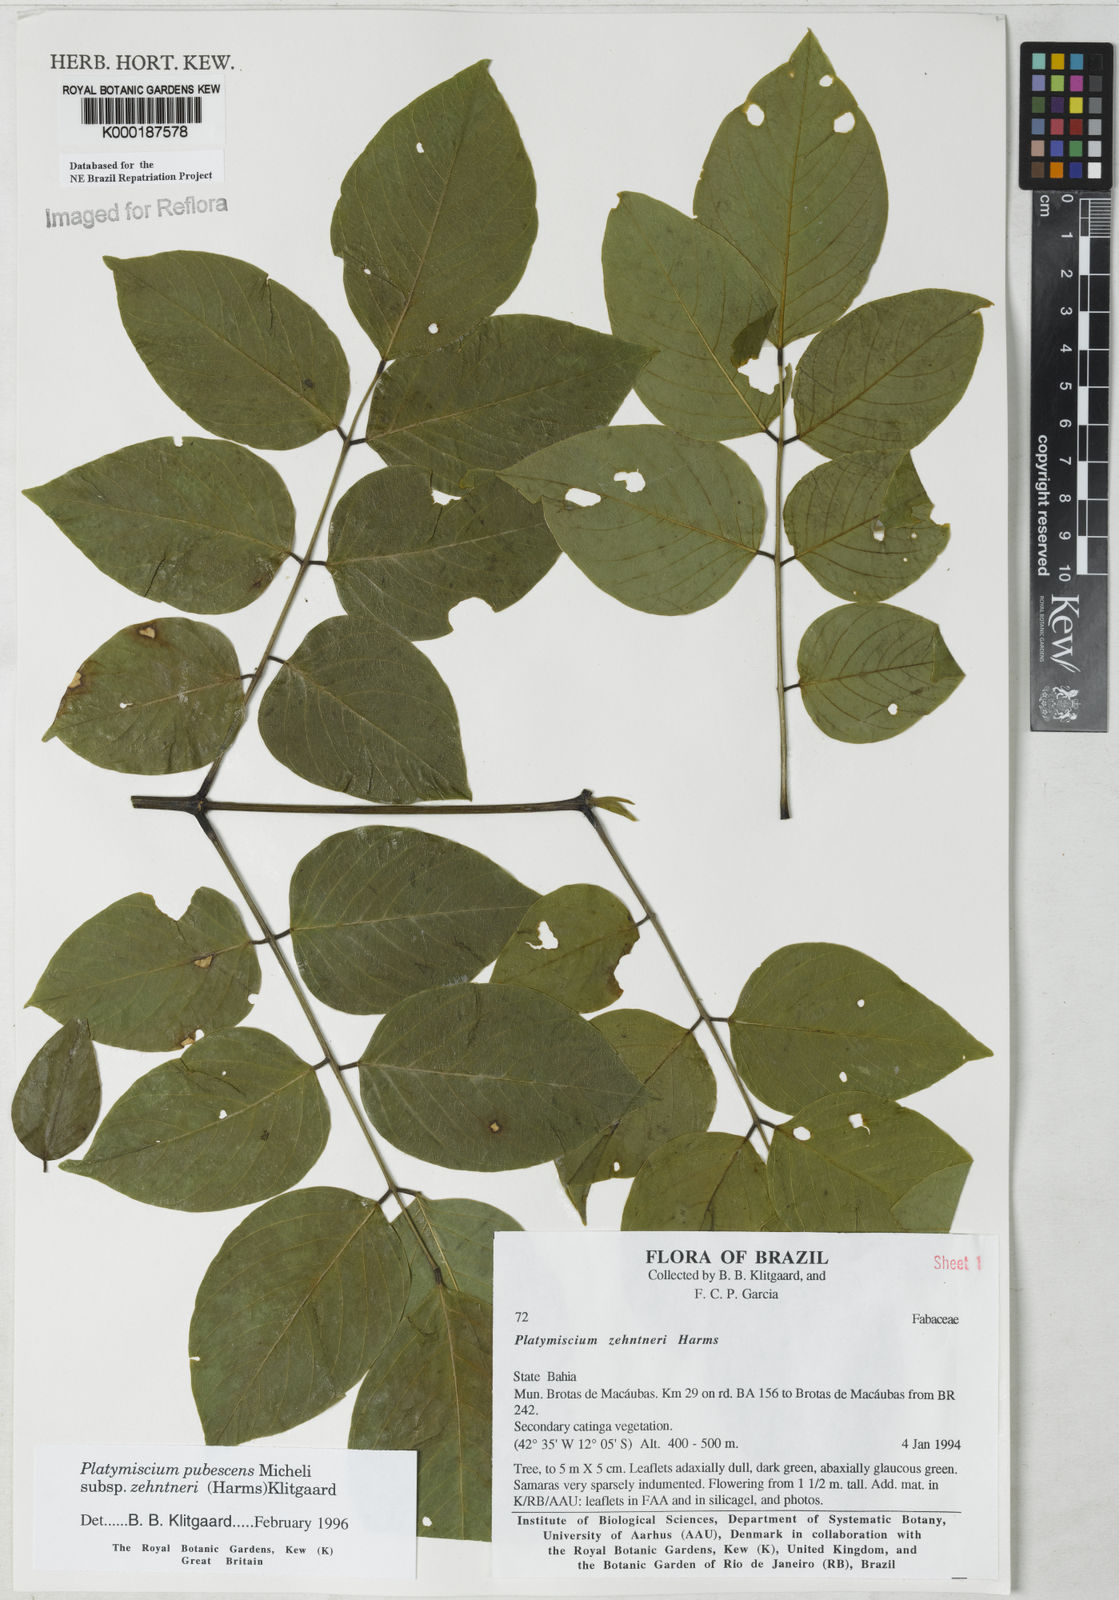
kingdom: Plantae
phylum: Tracheophyta
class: Magnoliopsida
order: Fabales
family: Fabaceae
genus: Platymiscium
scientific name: Platymiscium pubescens
